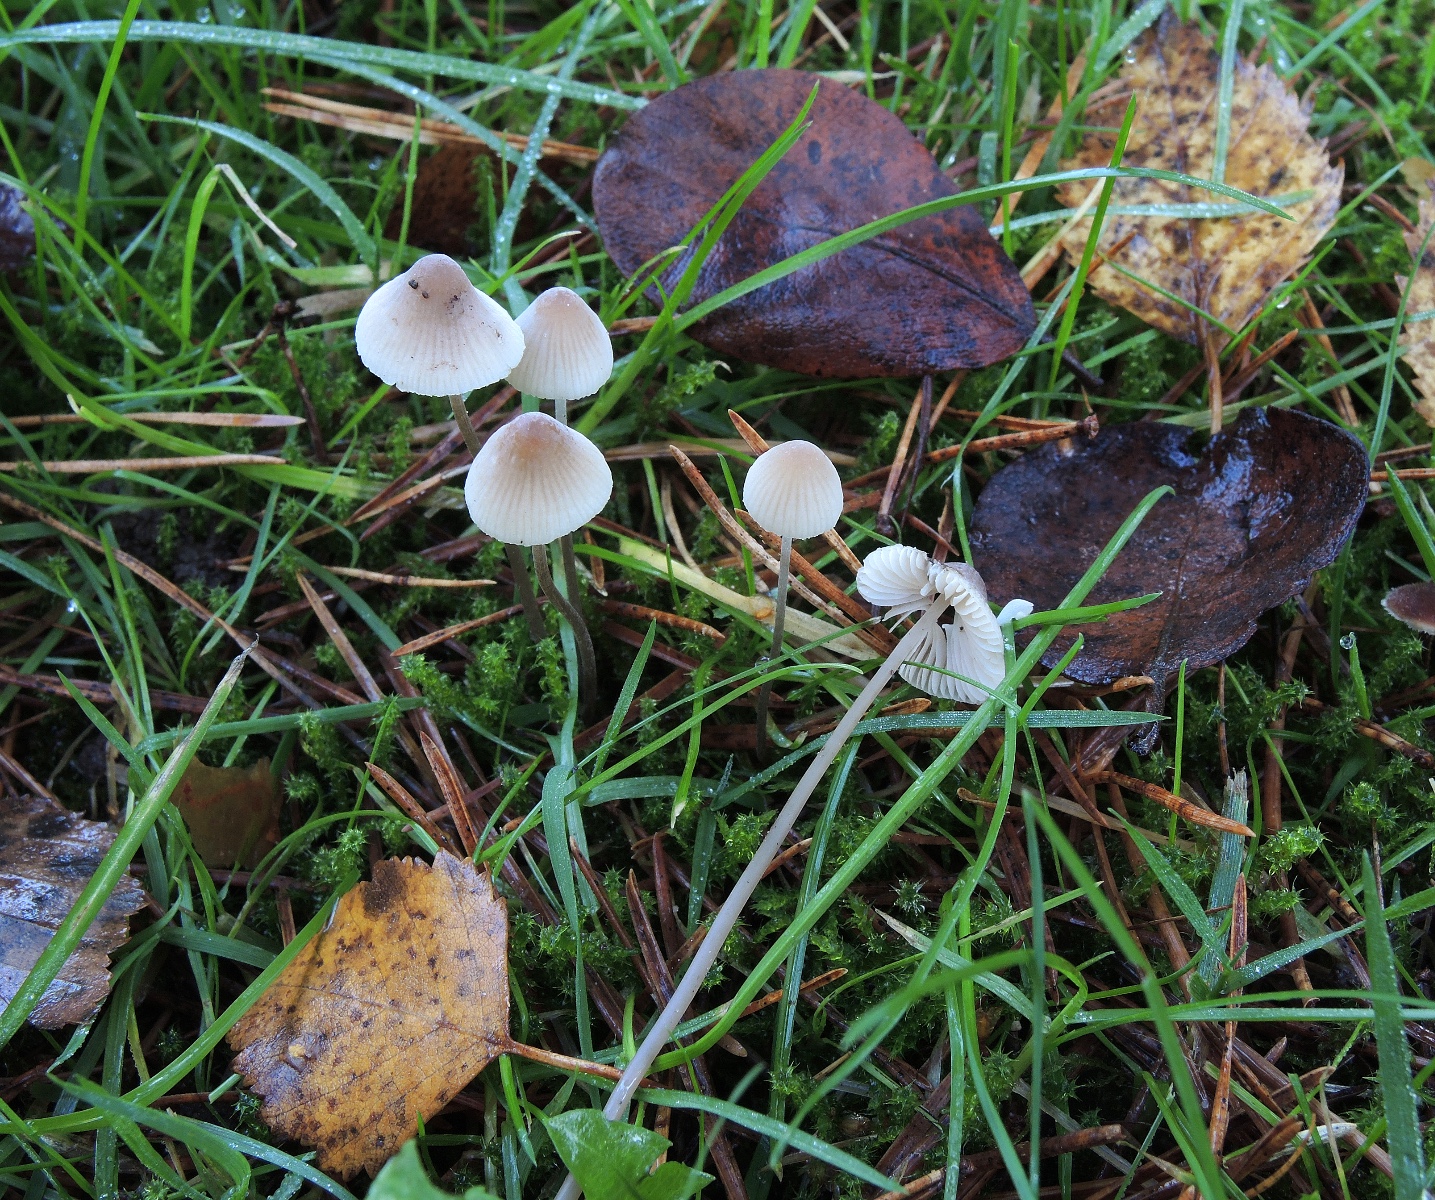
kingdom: Fungi
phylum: Basidiomycota
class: Agaricomycetes
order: Agaricales
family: Mycenaceae
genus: Mycena
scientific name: Mycena metata
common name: rødlig huesvamp
